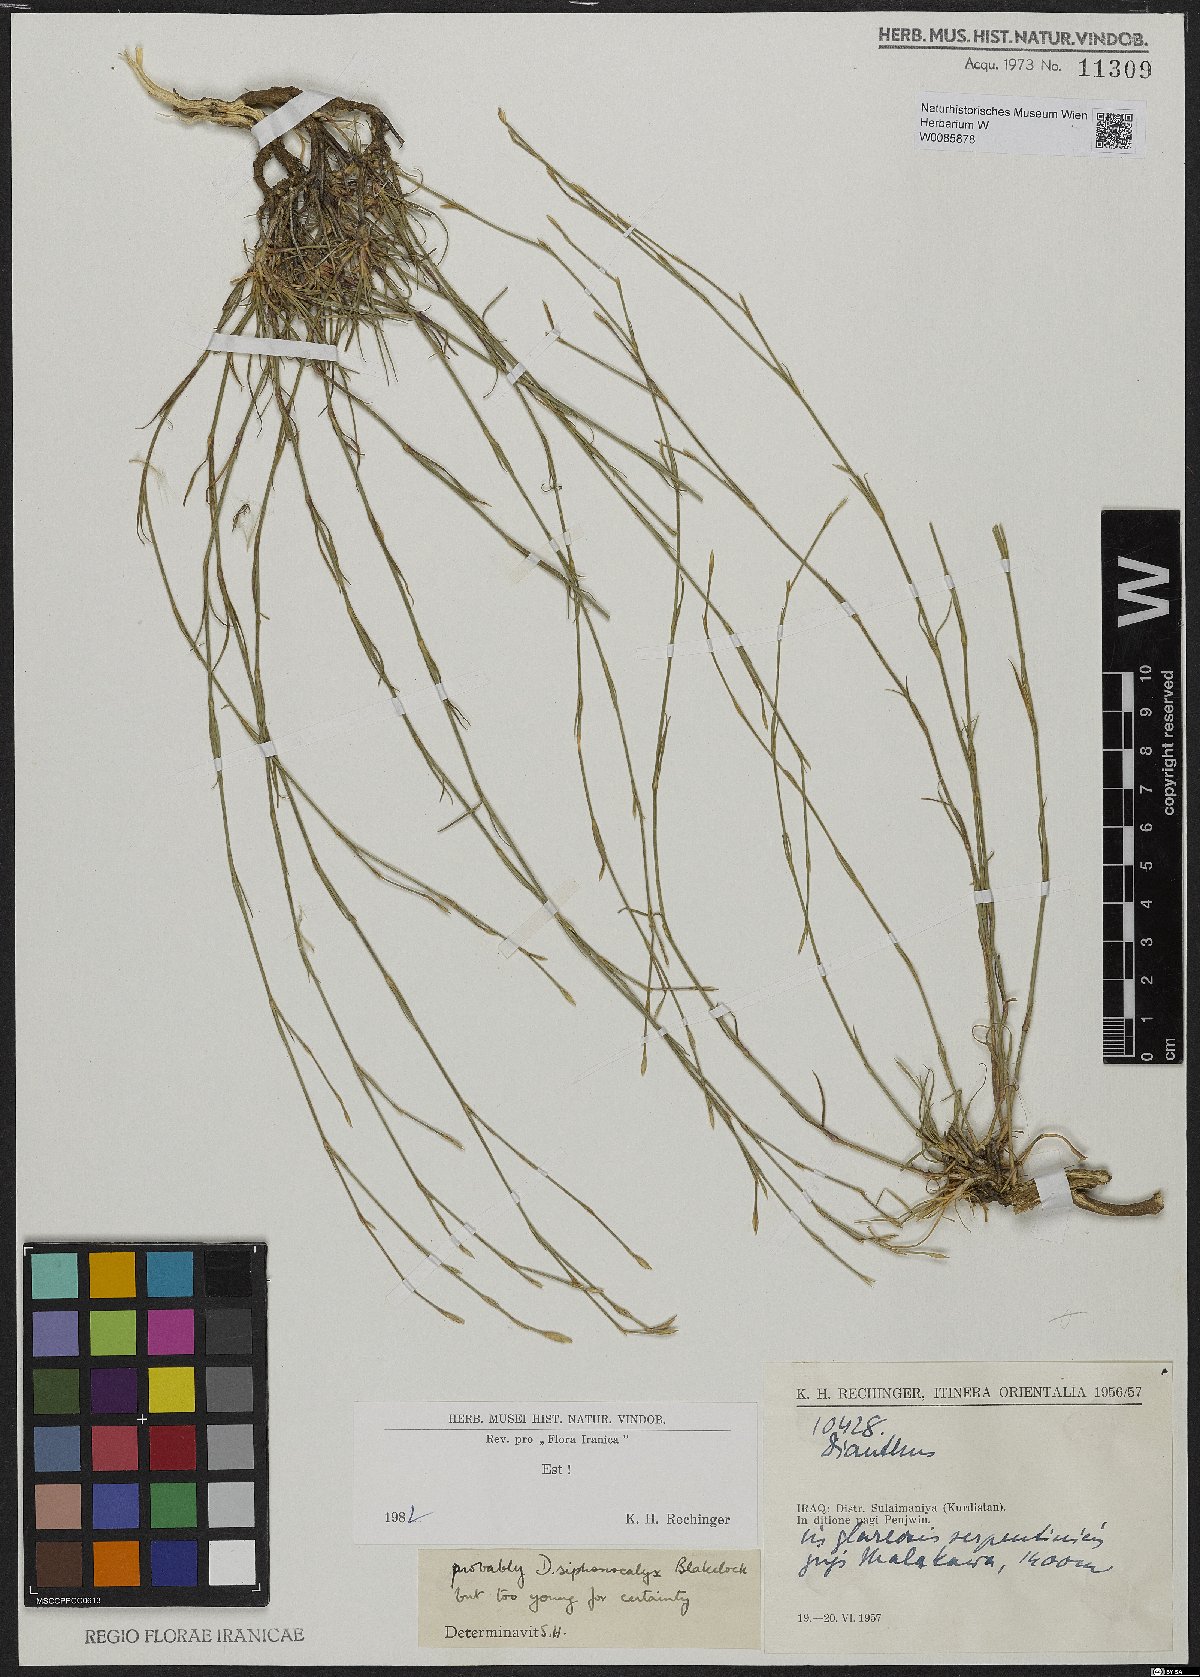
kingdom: Plantae
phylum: Tracheophyta
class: Magnoliopsida
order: Caryophyllales
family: Caryophyllaceae
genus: Dianthus
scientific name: Dianthus siphonocalyx
